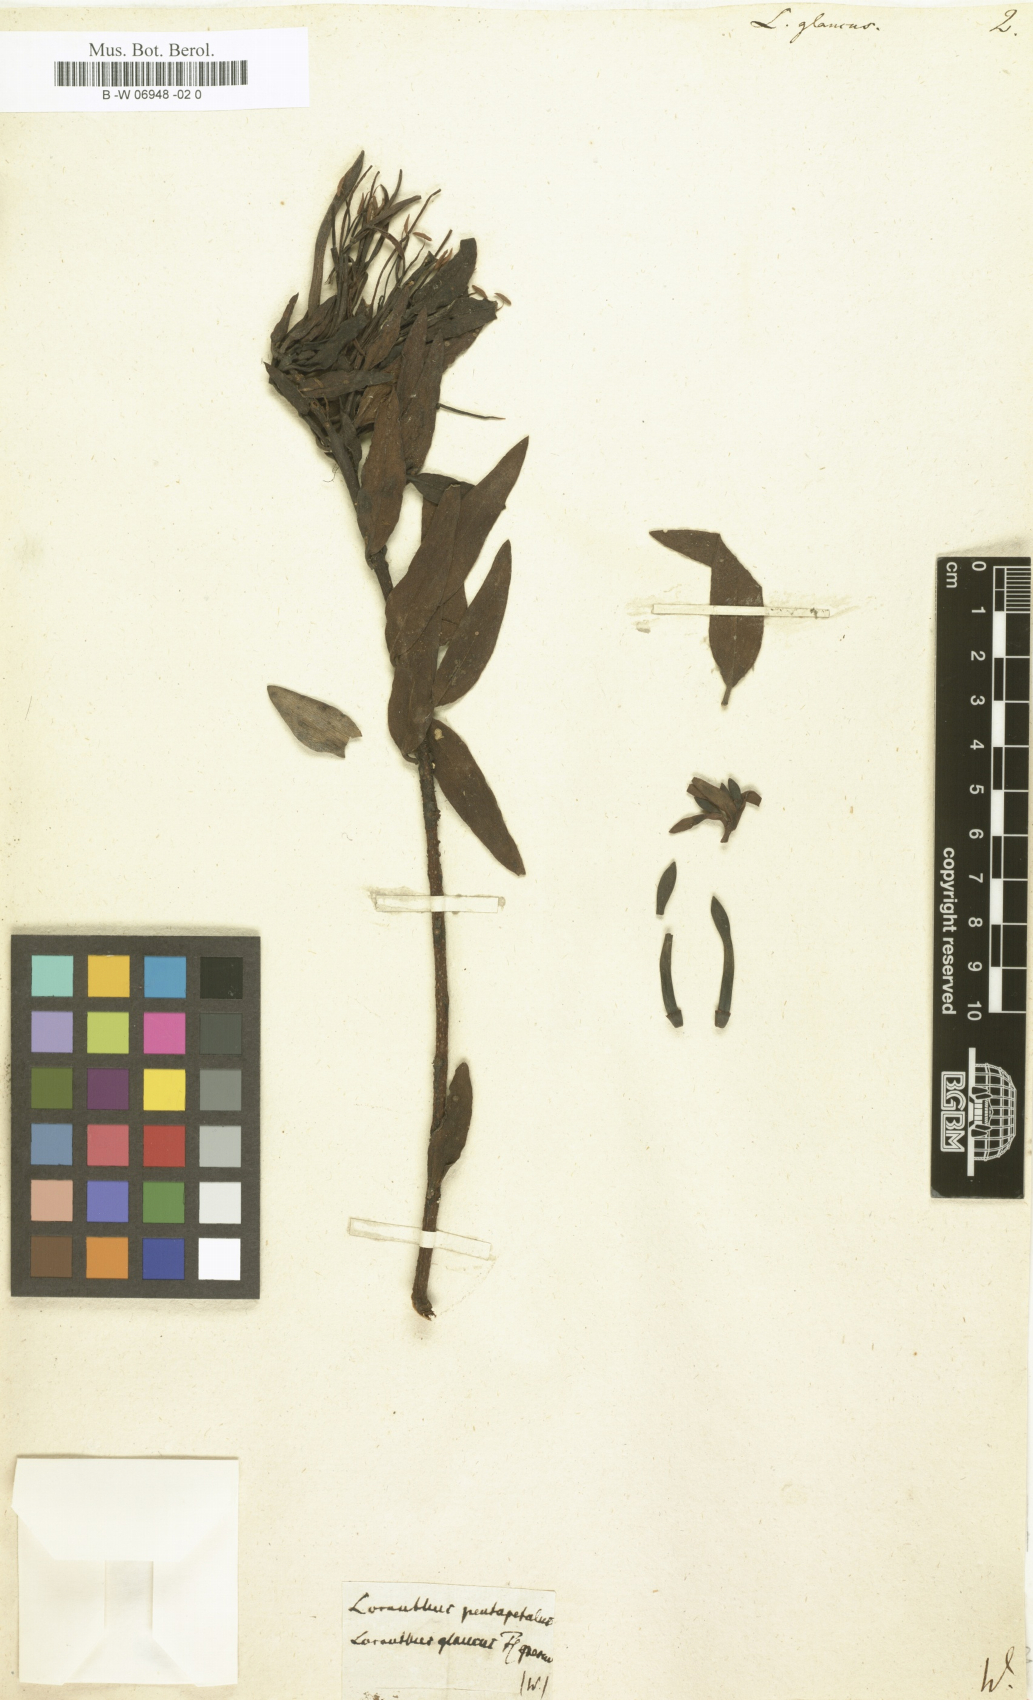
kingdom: Plantae
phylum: Tracheophyta
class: Magnoliopsida
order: Santalales
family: Loranthaceae
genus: Loranthus
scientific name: Loranthus glaucus
